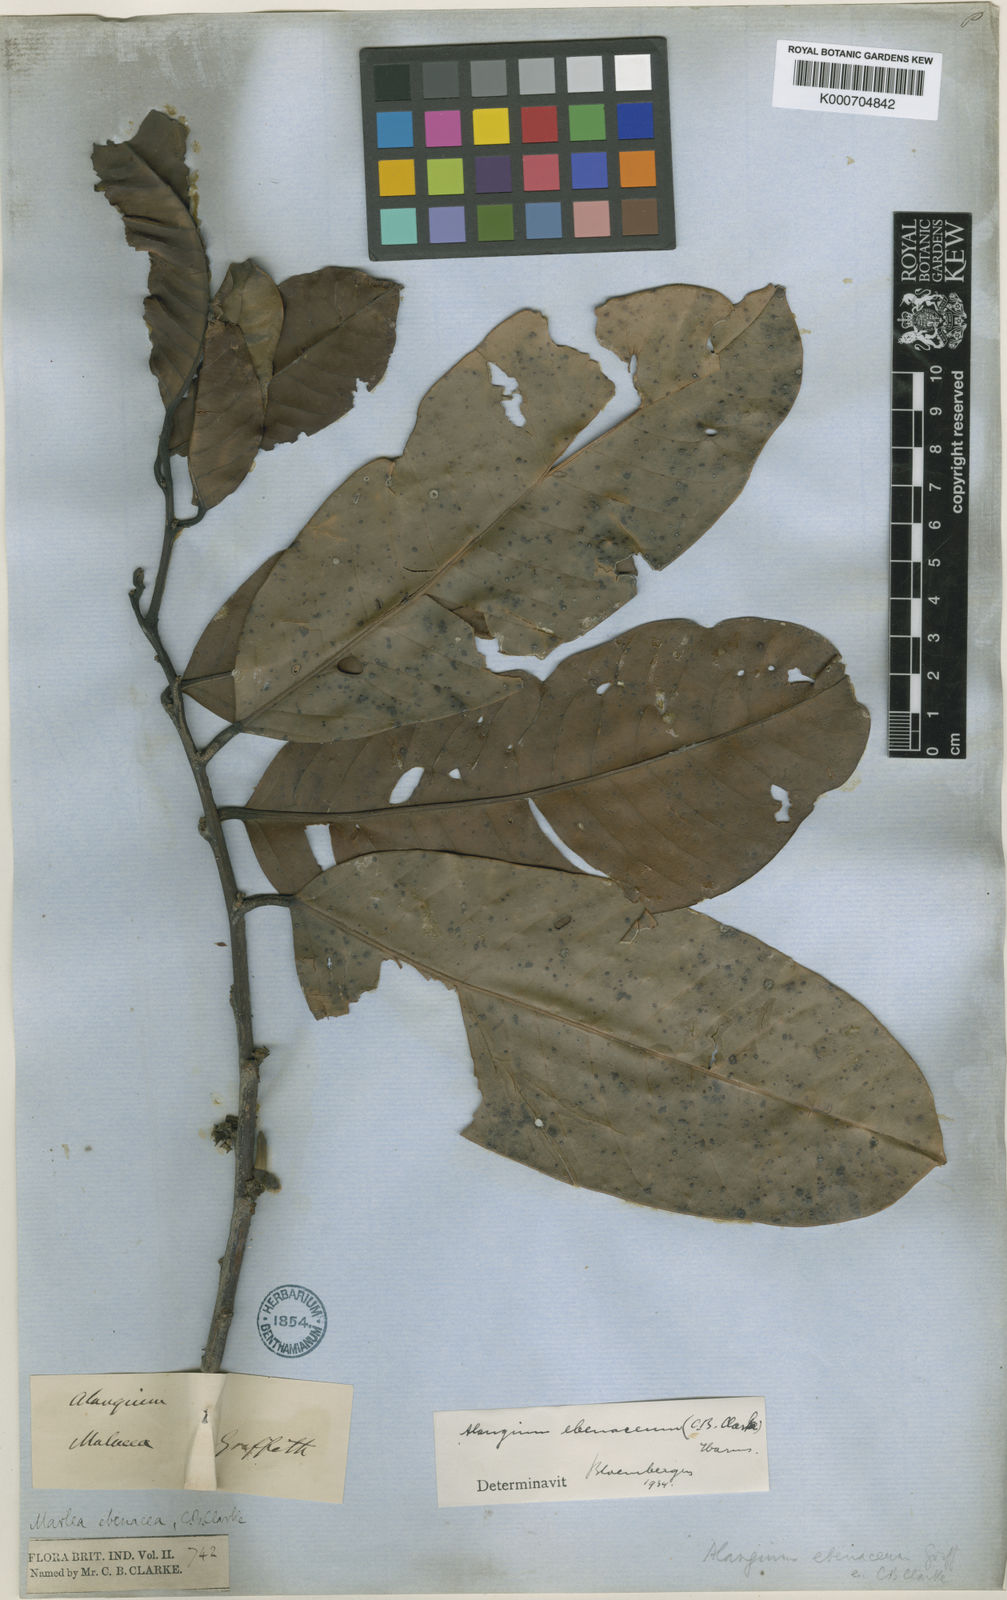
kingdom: Plantae
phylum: Tracheophyta
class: Magnoliopsida
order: Cornales
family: Cornaceae
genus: Alangium
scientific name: Alangium
